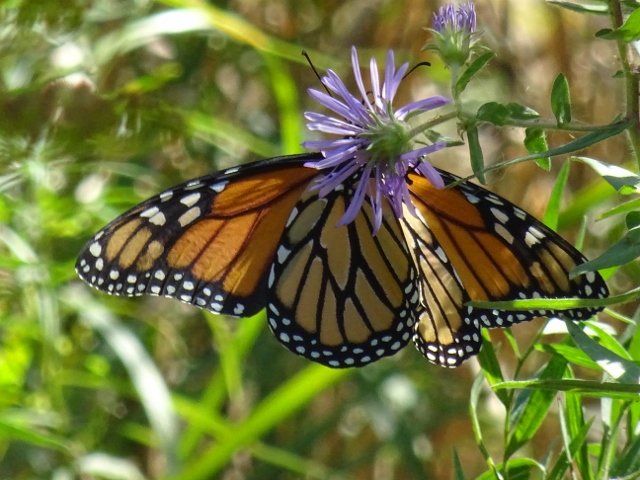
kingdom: Animalia
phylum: Arthropoda
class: Insecta
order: Lepidoptera
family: Nymphalidae
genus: Danaus
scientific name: Danaus plexippus
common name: Monarch
